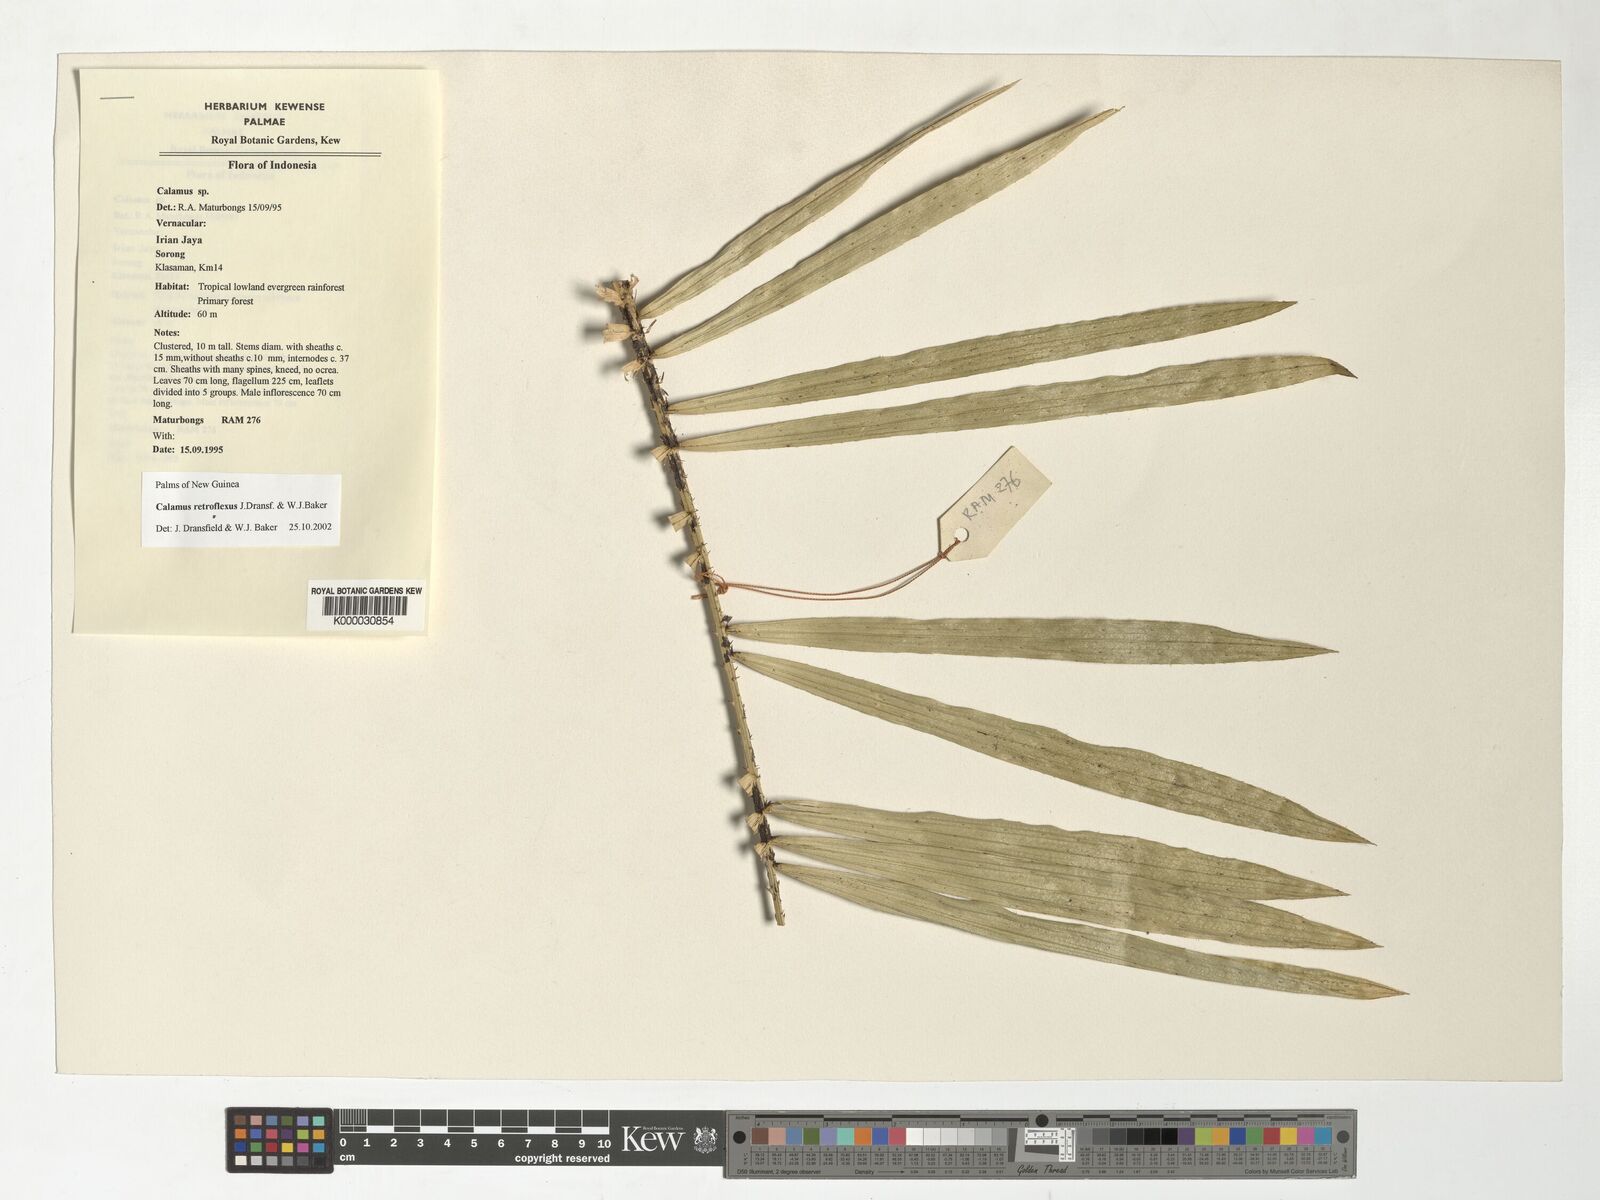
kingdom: Plantae
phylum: Tracheophyta
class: Liliopsida
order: Arecales
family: Arecaceae
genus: Calamus
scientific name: Calamus retroflexus
